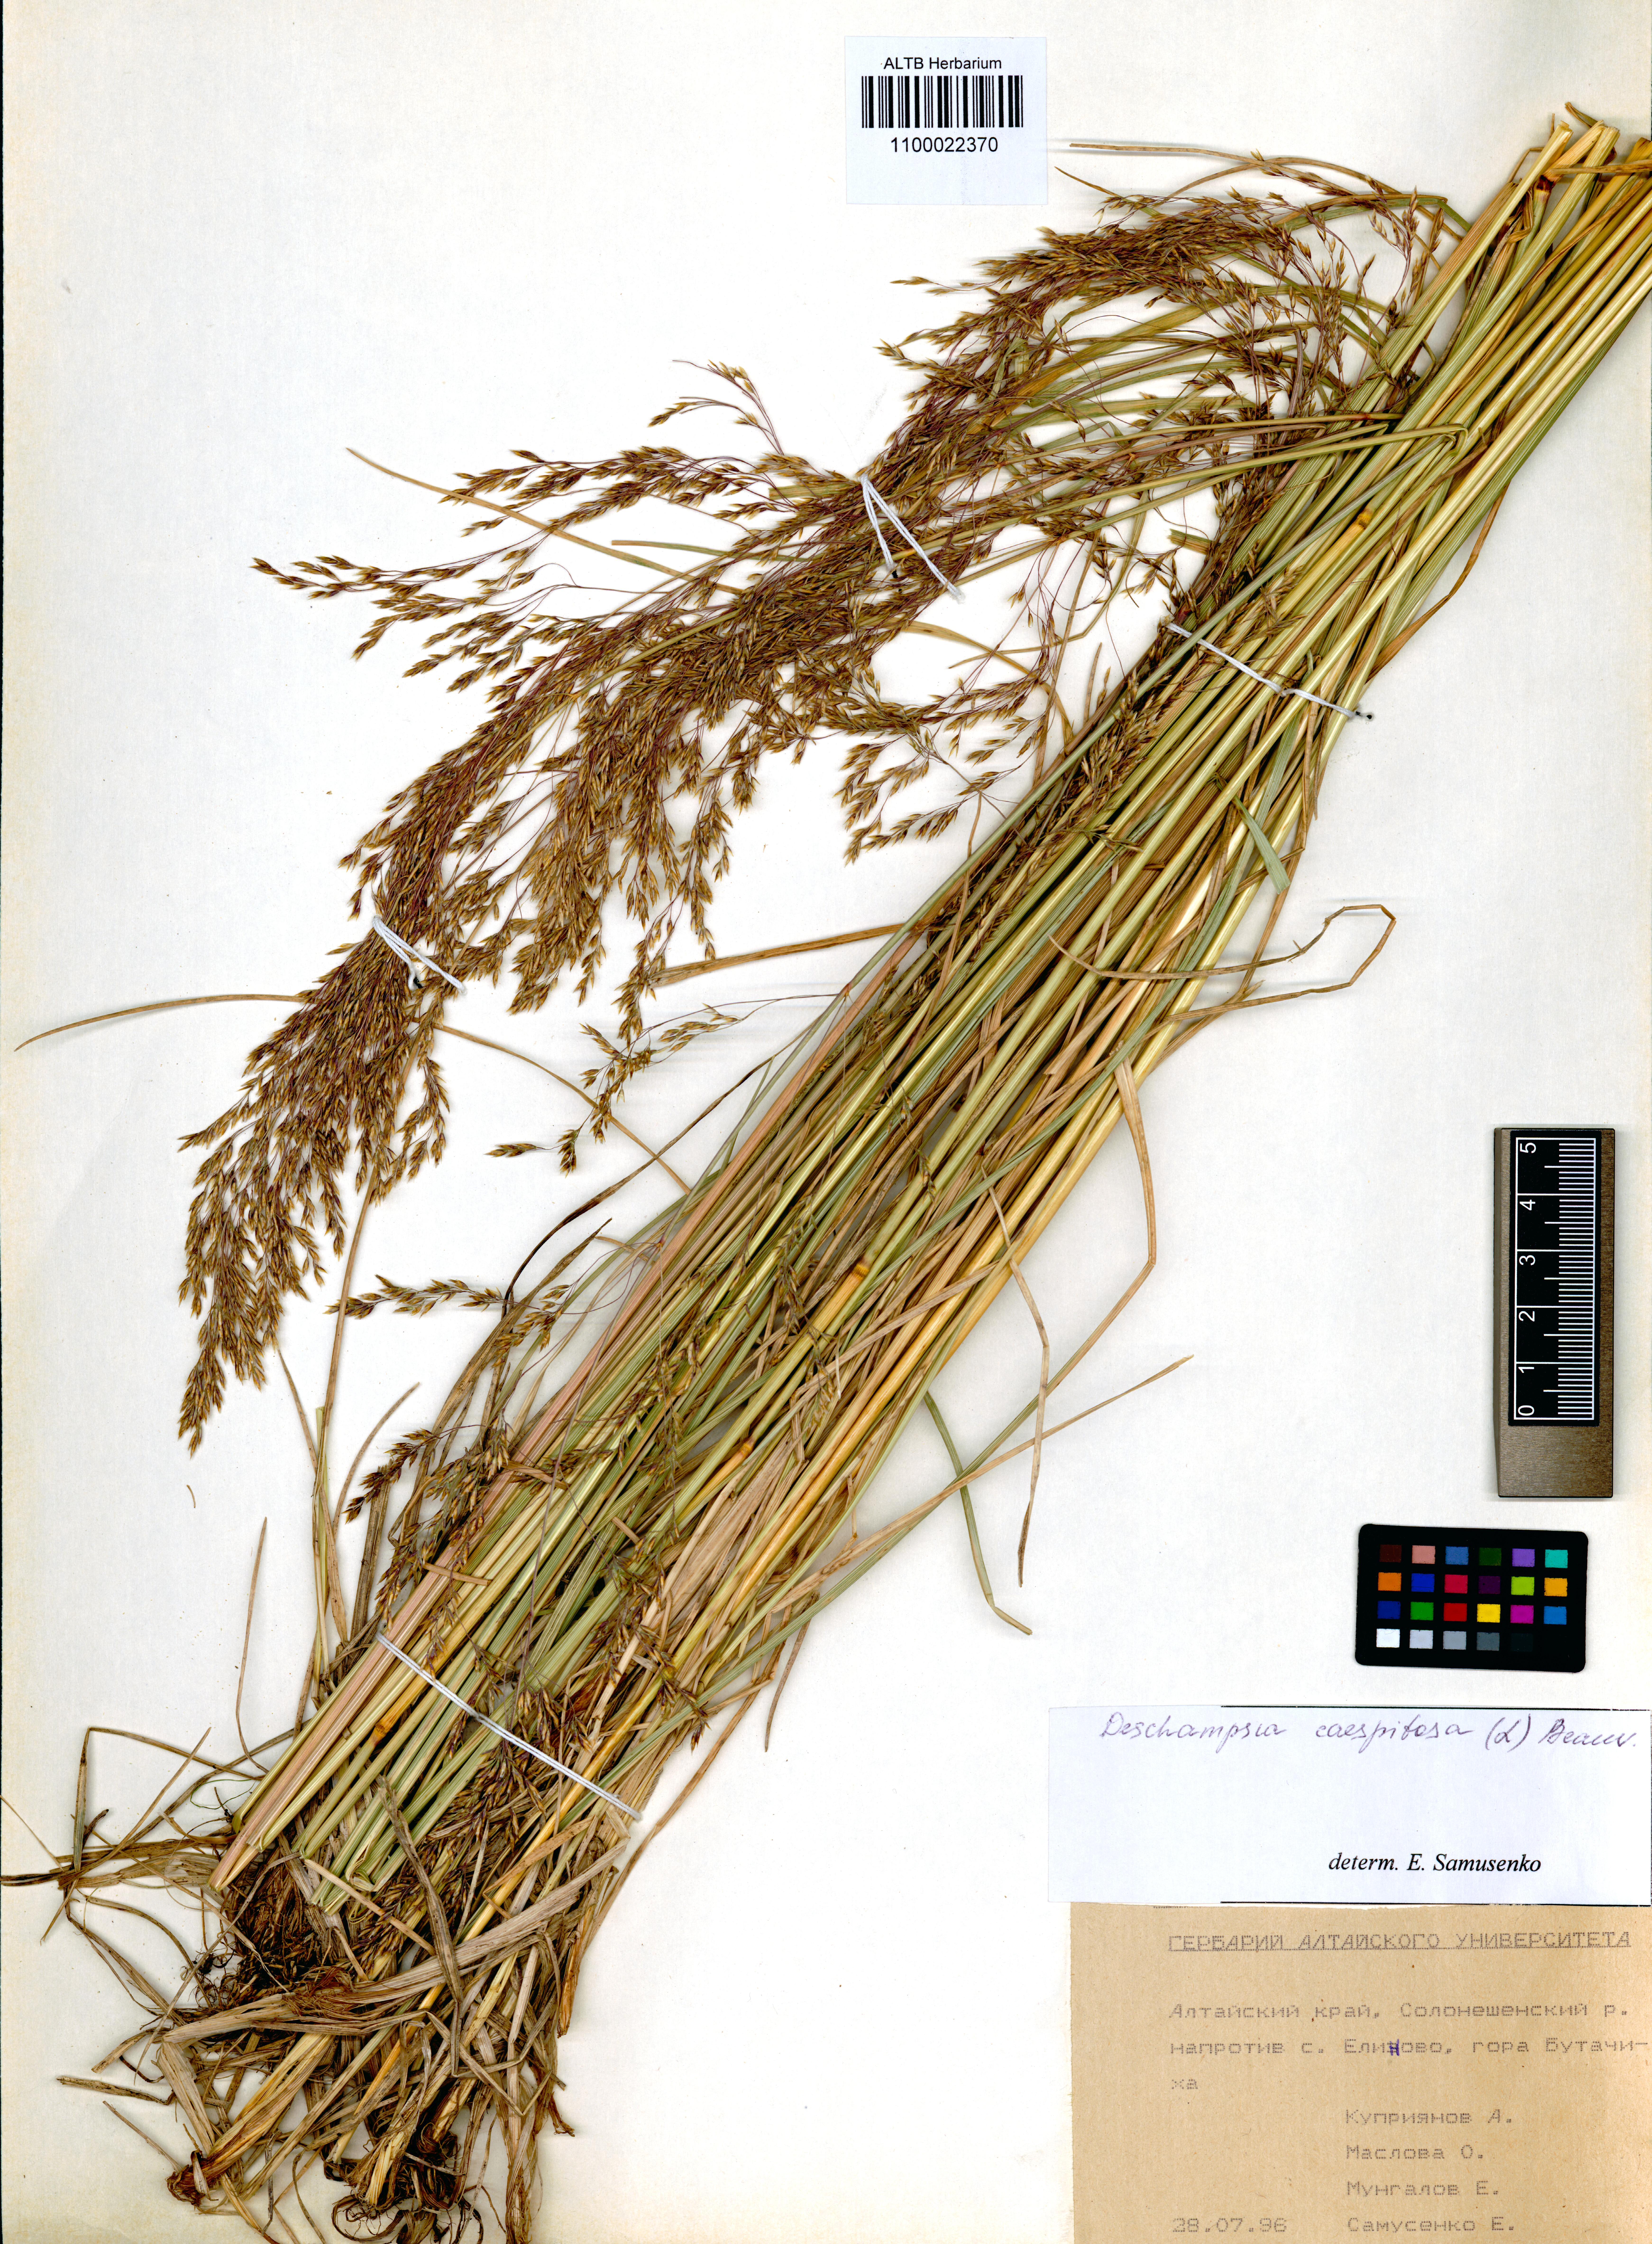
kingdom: Plantae
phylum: Tracheophyta
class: Liliopsida
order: Poales
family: Poaceae
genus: Deschampsia
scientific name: Deschampsia cespitosa
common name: Tufted hair-grass
